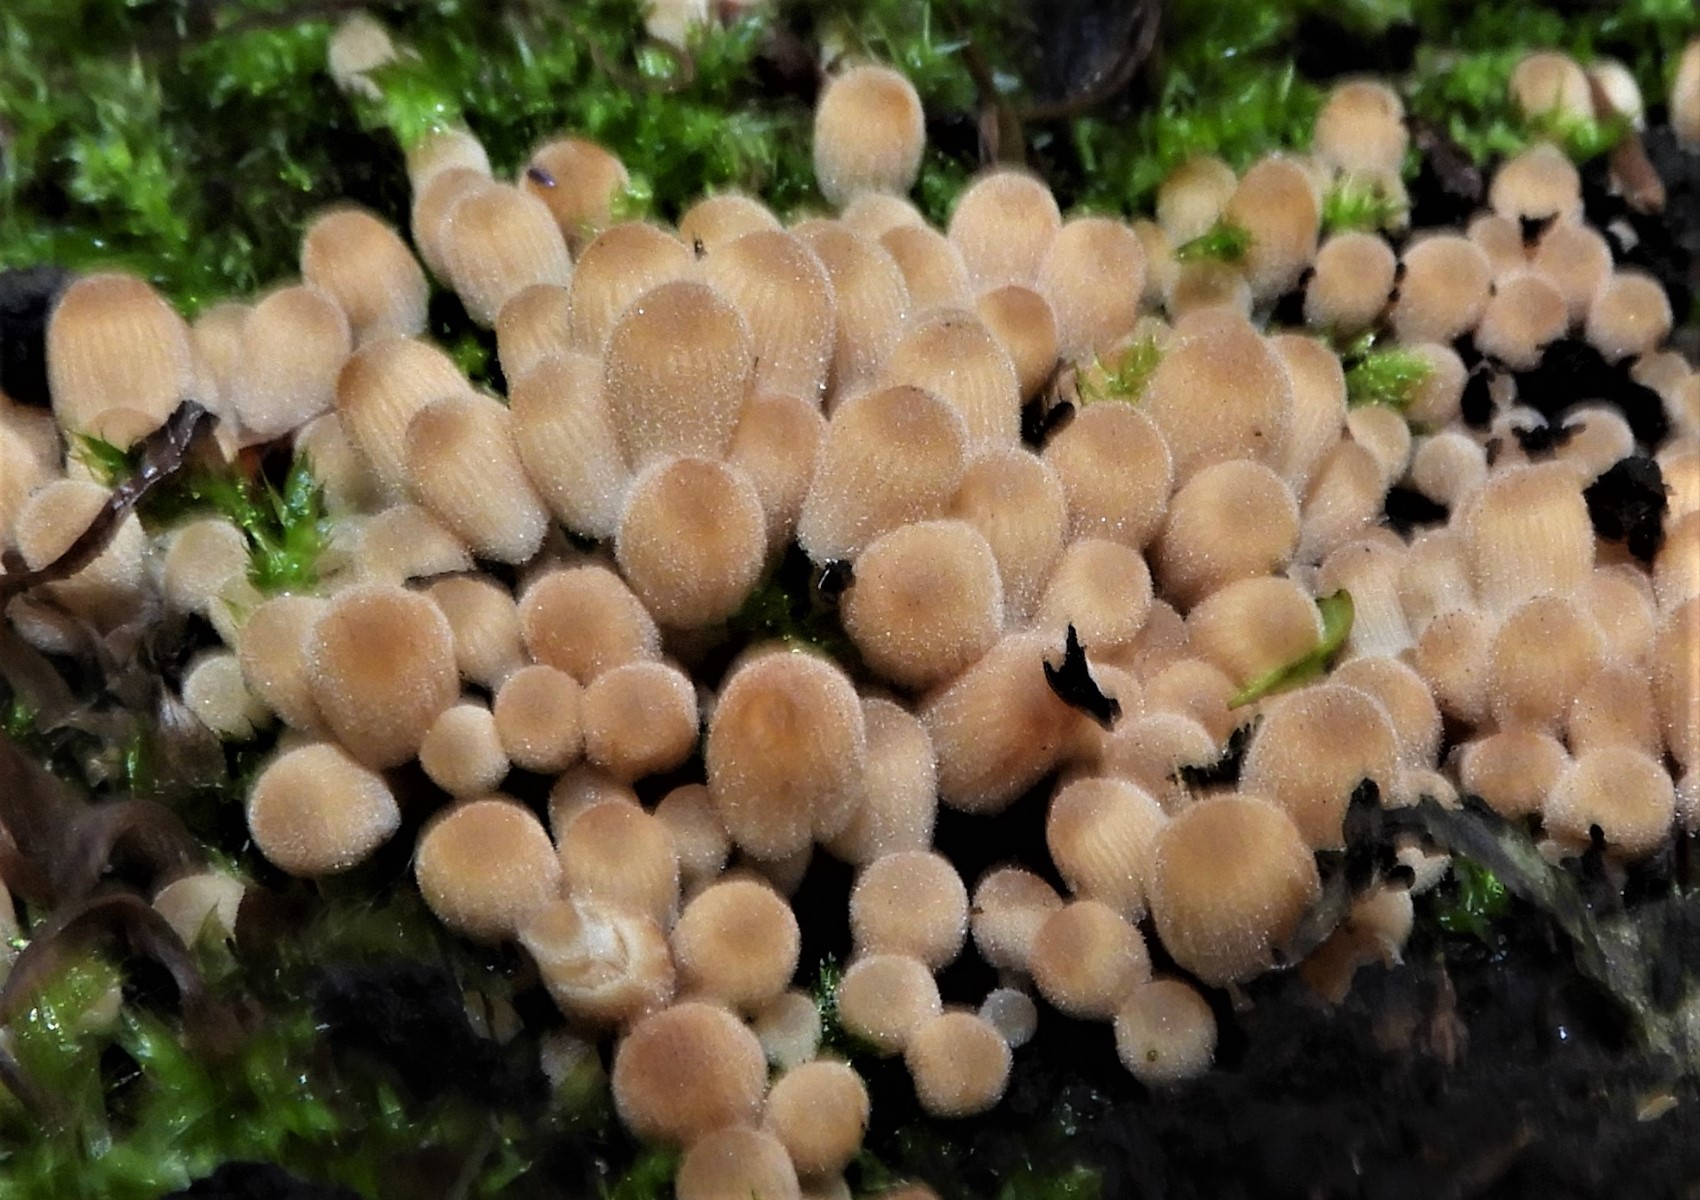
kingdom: Fungi
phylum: Basidiomycota
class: Agaricomycetes
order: Agaricales
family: Psathyrellaceae
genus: Coprinellus
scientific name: Coprinellus disseminatus
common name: bredsået blækhat
